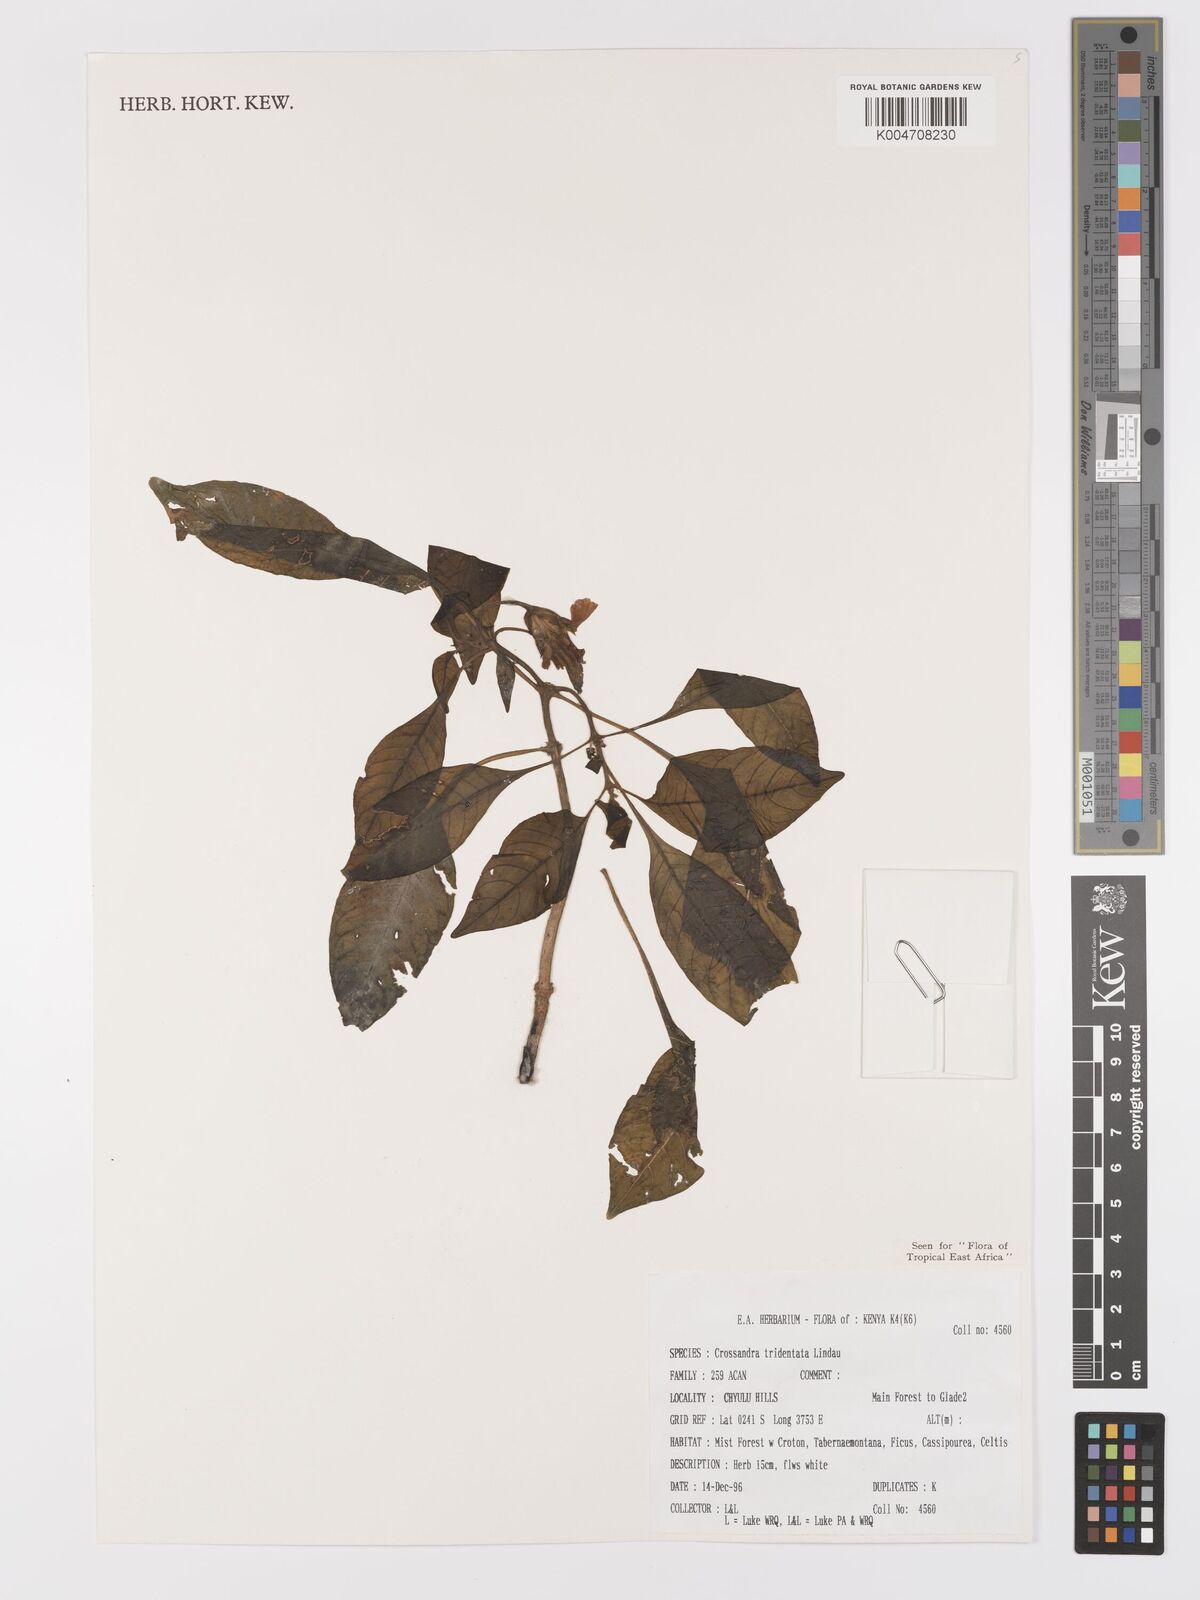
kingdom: Plantae
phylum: Tracheophyta
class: Magnoliopsida
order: Lamiales
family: Acanthaceae
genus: Crossandra
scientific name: Crossandra tridentata
